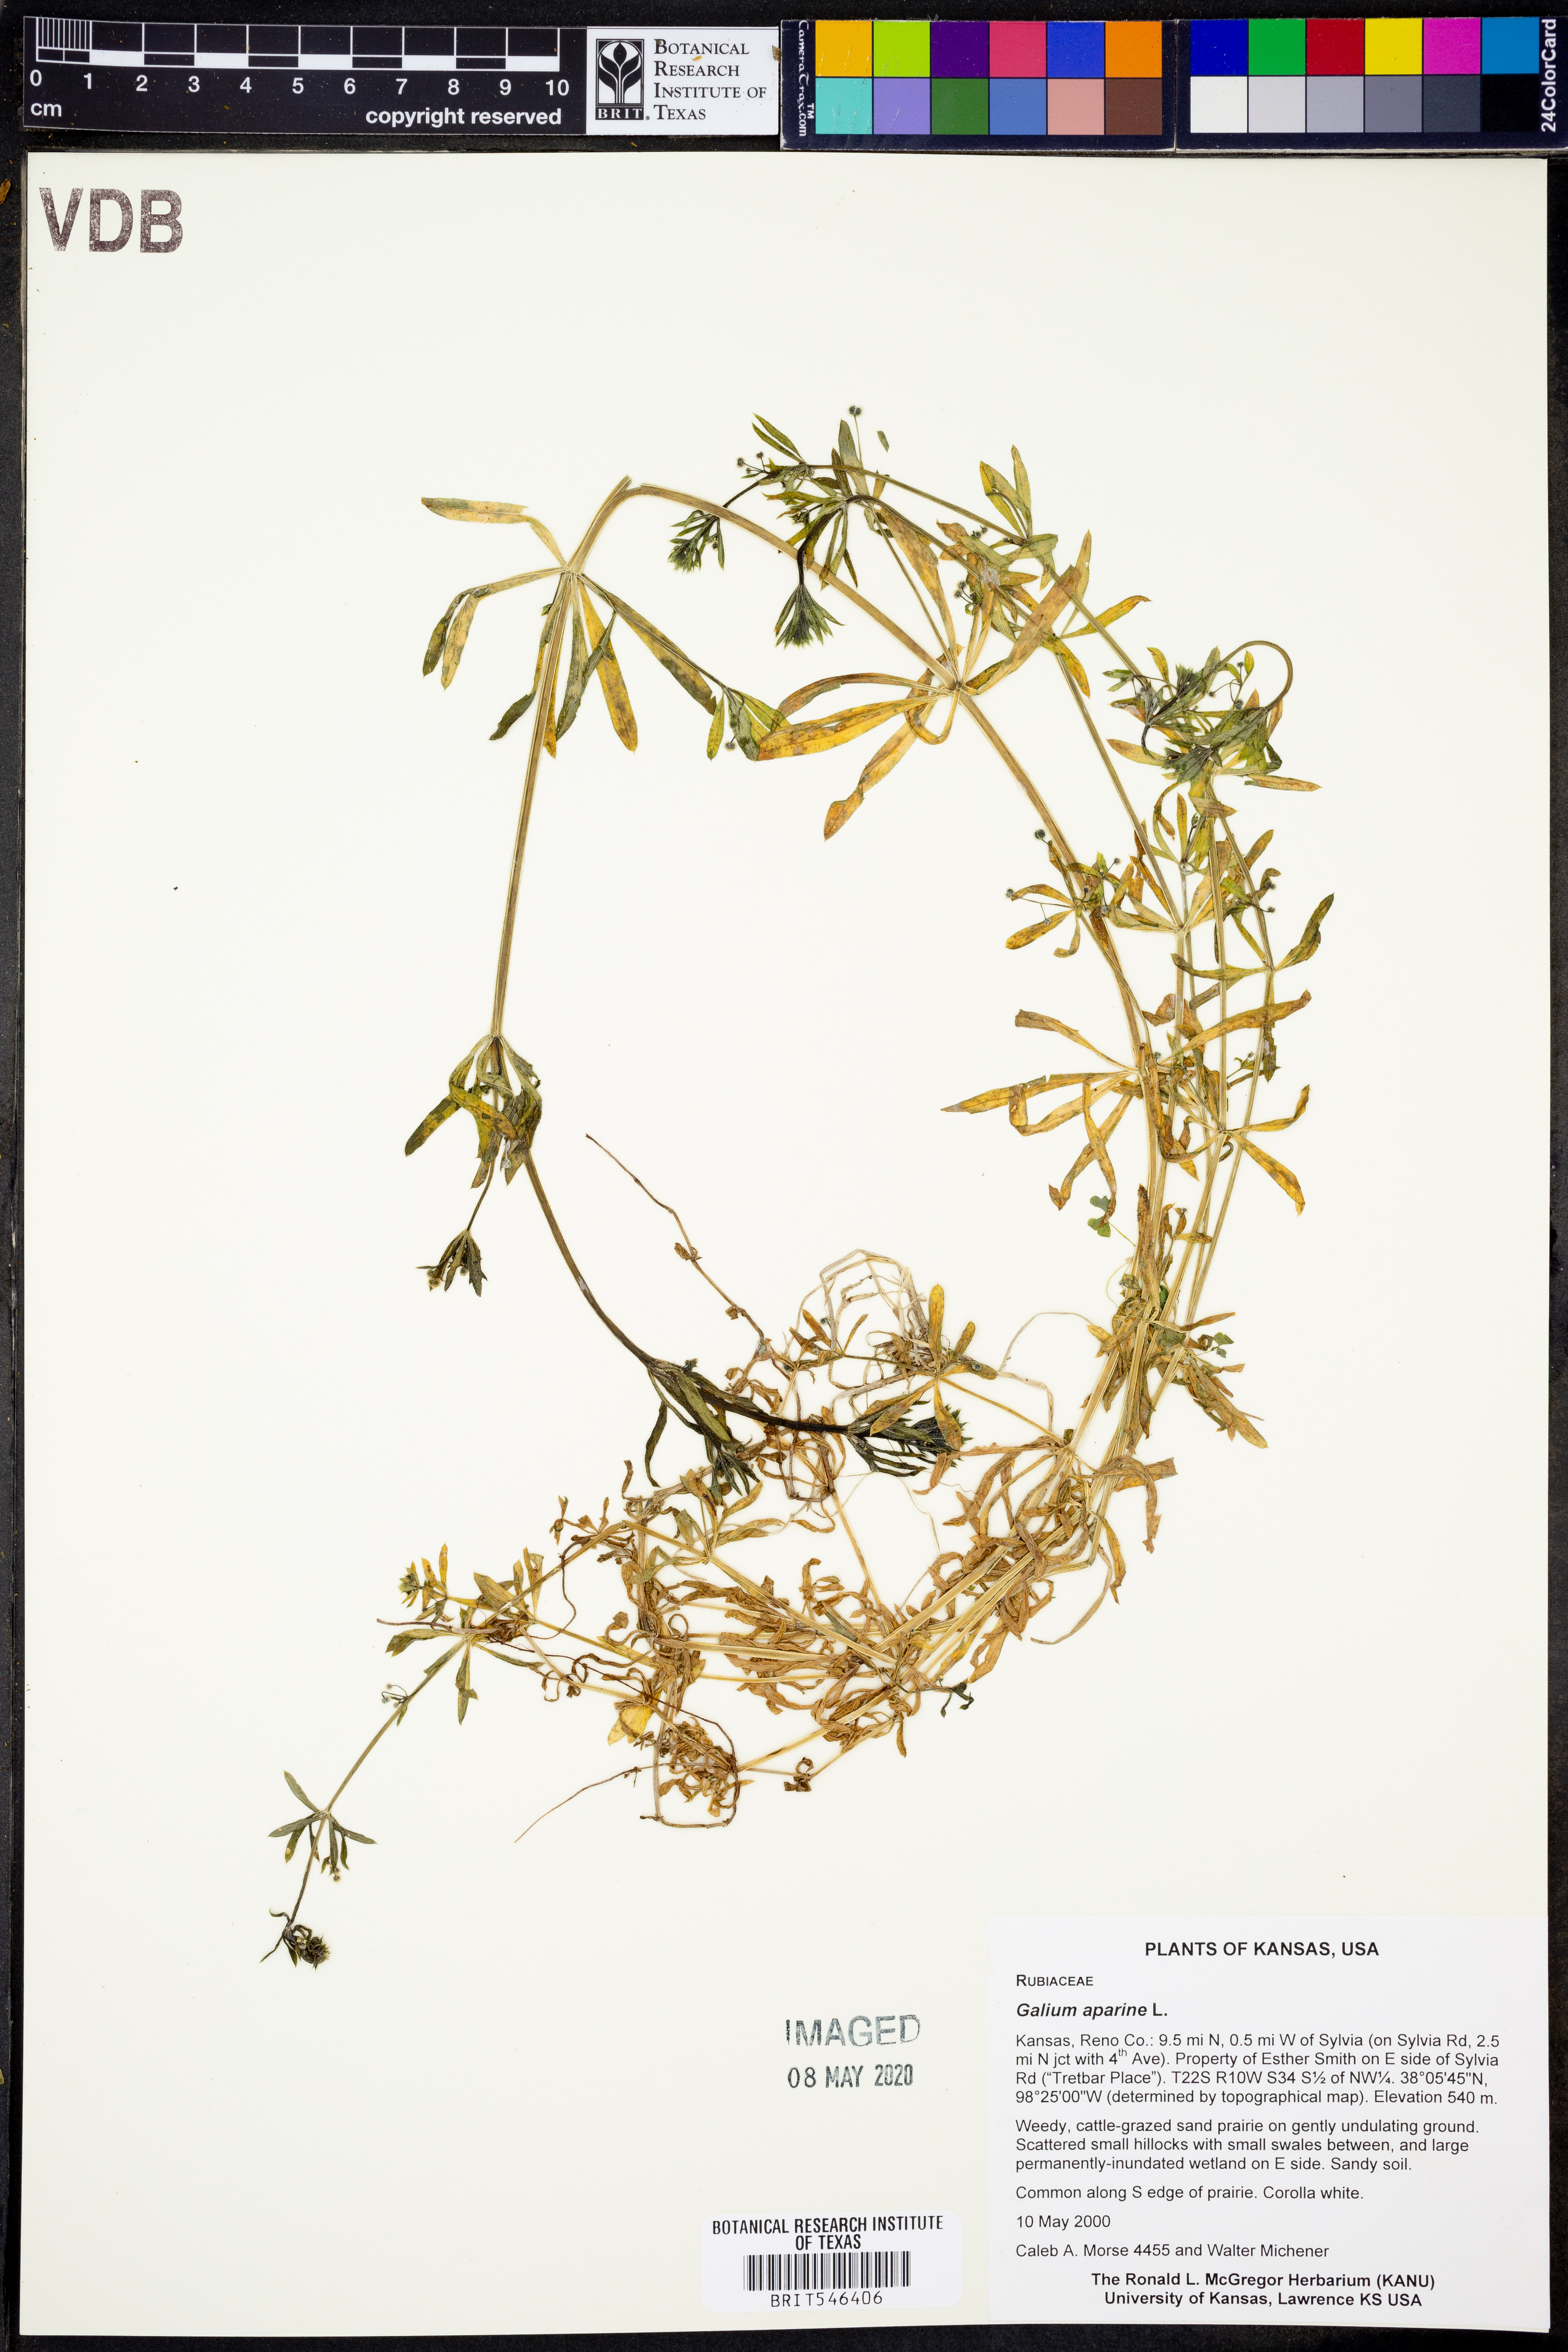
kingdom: Plantae
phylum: Tracheophyta
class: Magnoliopsida
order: Gentianales
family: Rubiaceae
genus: Galium
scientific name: Galium aparine
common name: Cleavers
